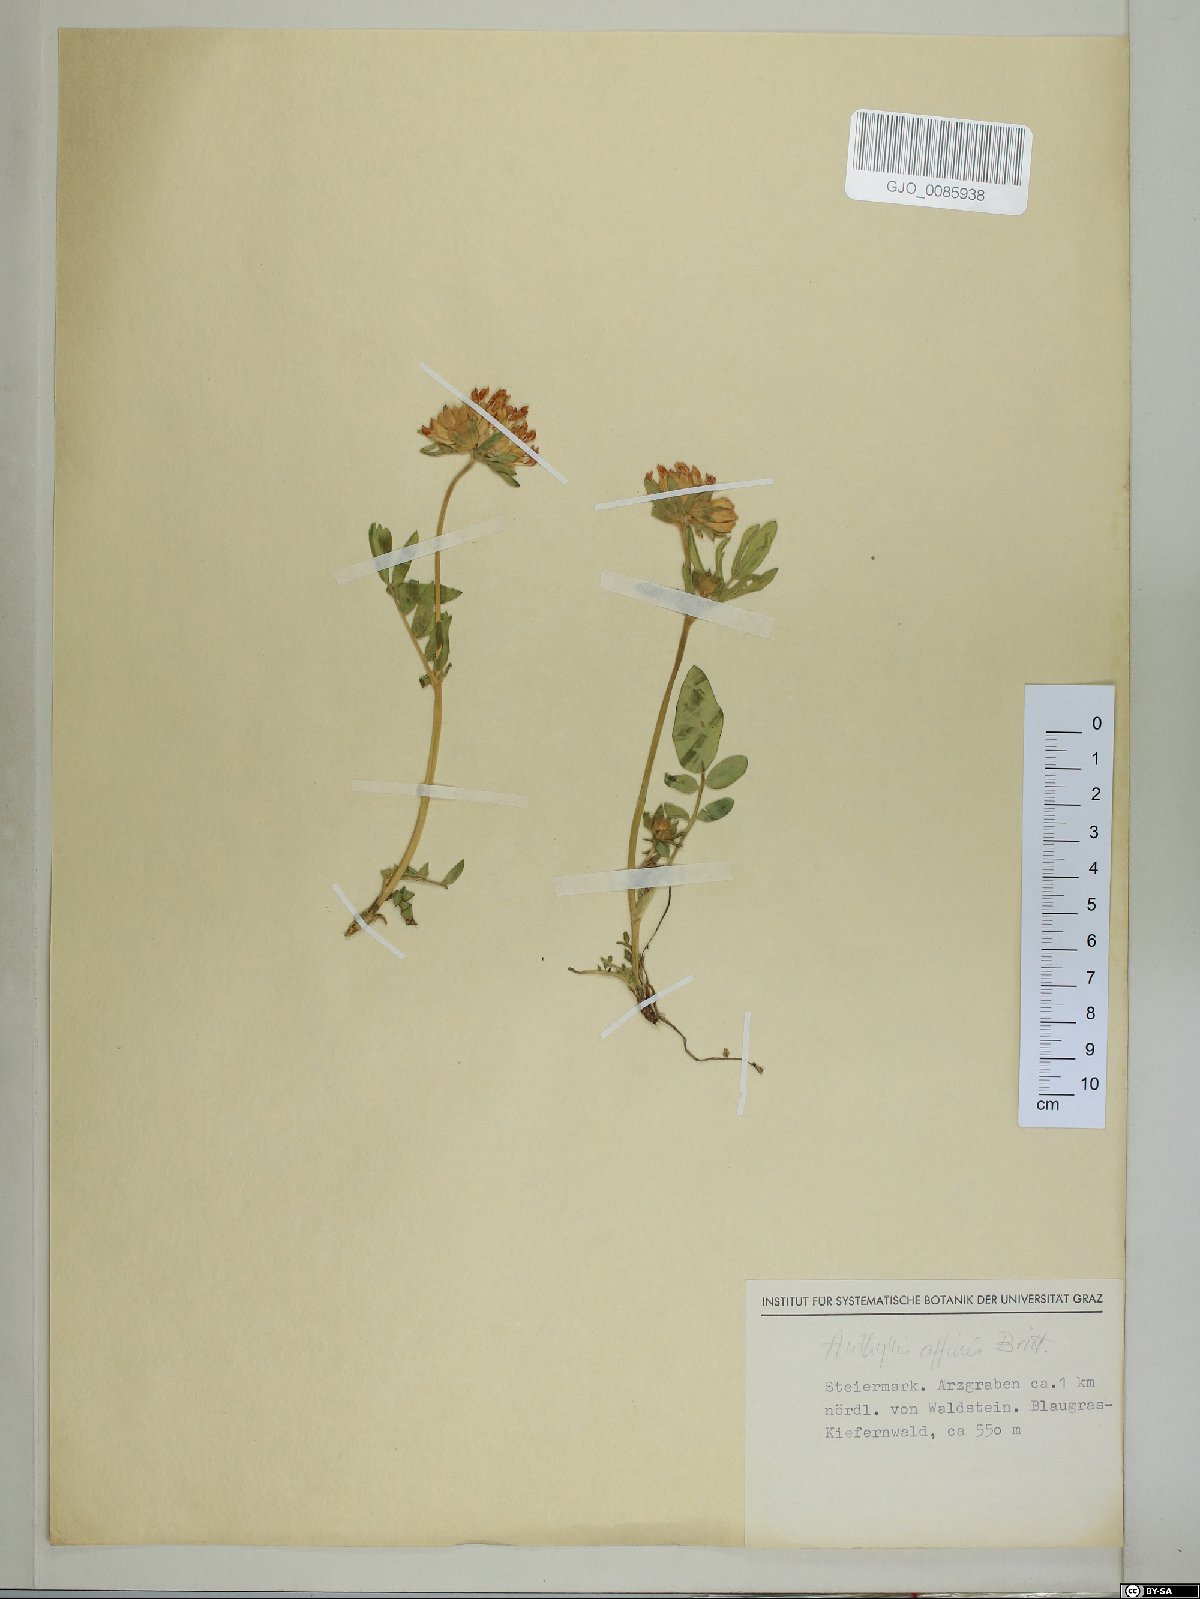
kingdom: Plantae
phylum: Tracheophyta
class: Magnoliopsida
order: Fabales
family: Fabaceae
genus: Anthyllis
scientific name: Anthyllis vulneraria
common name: Kidney vetch
